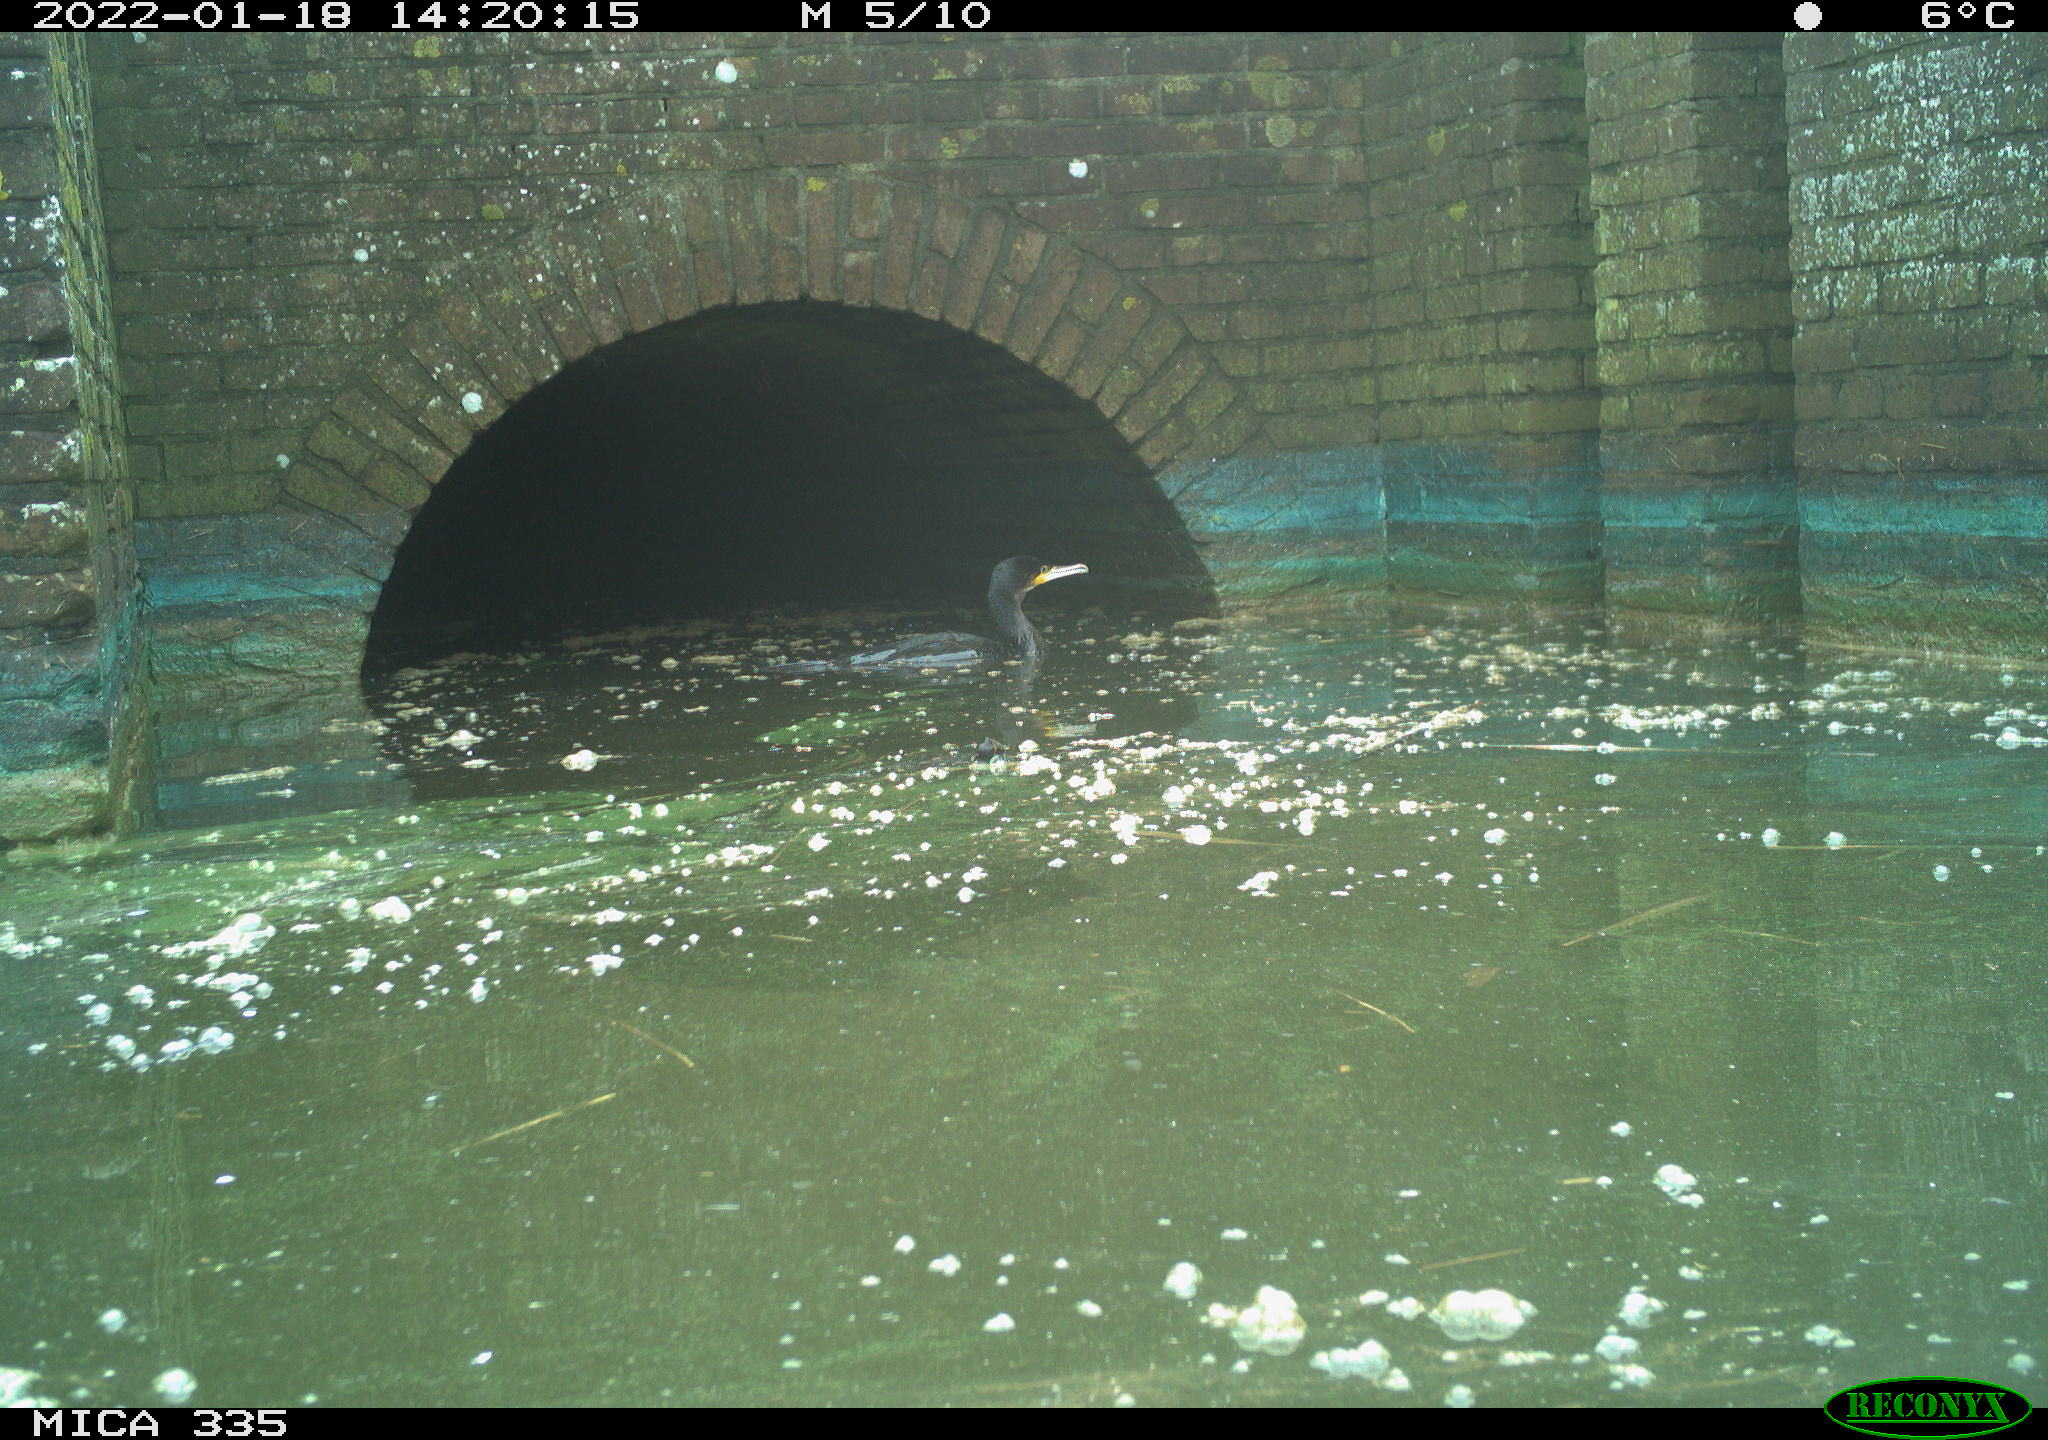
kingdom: Animalia
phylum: Chordata
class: Aves
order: Suliformes
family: Phalacrocoracidae
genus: Phalacrocorax
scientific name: Phalacrocorax carbo
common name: Great cormorant
